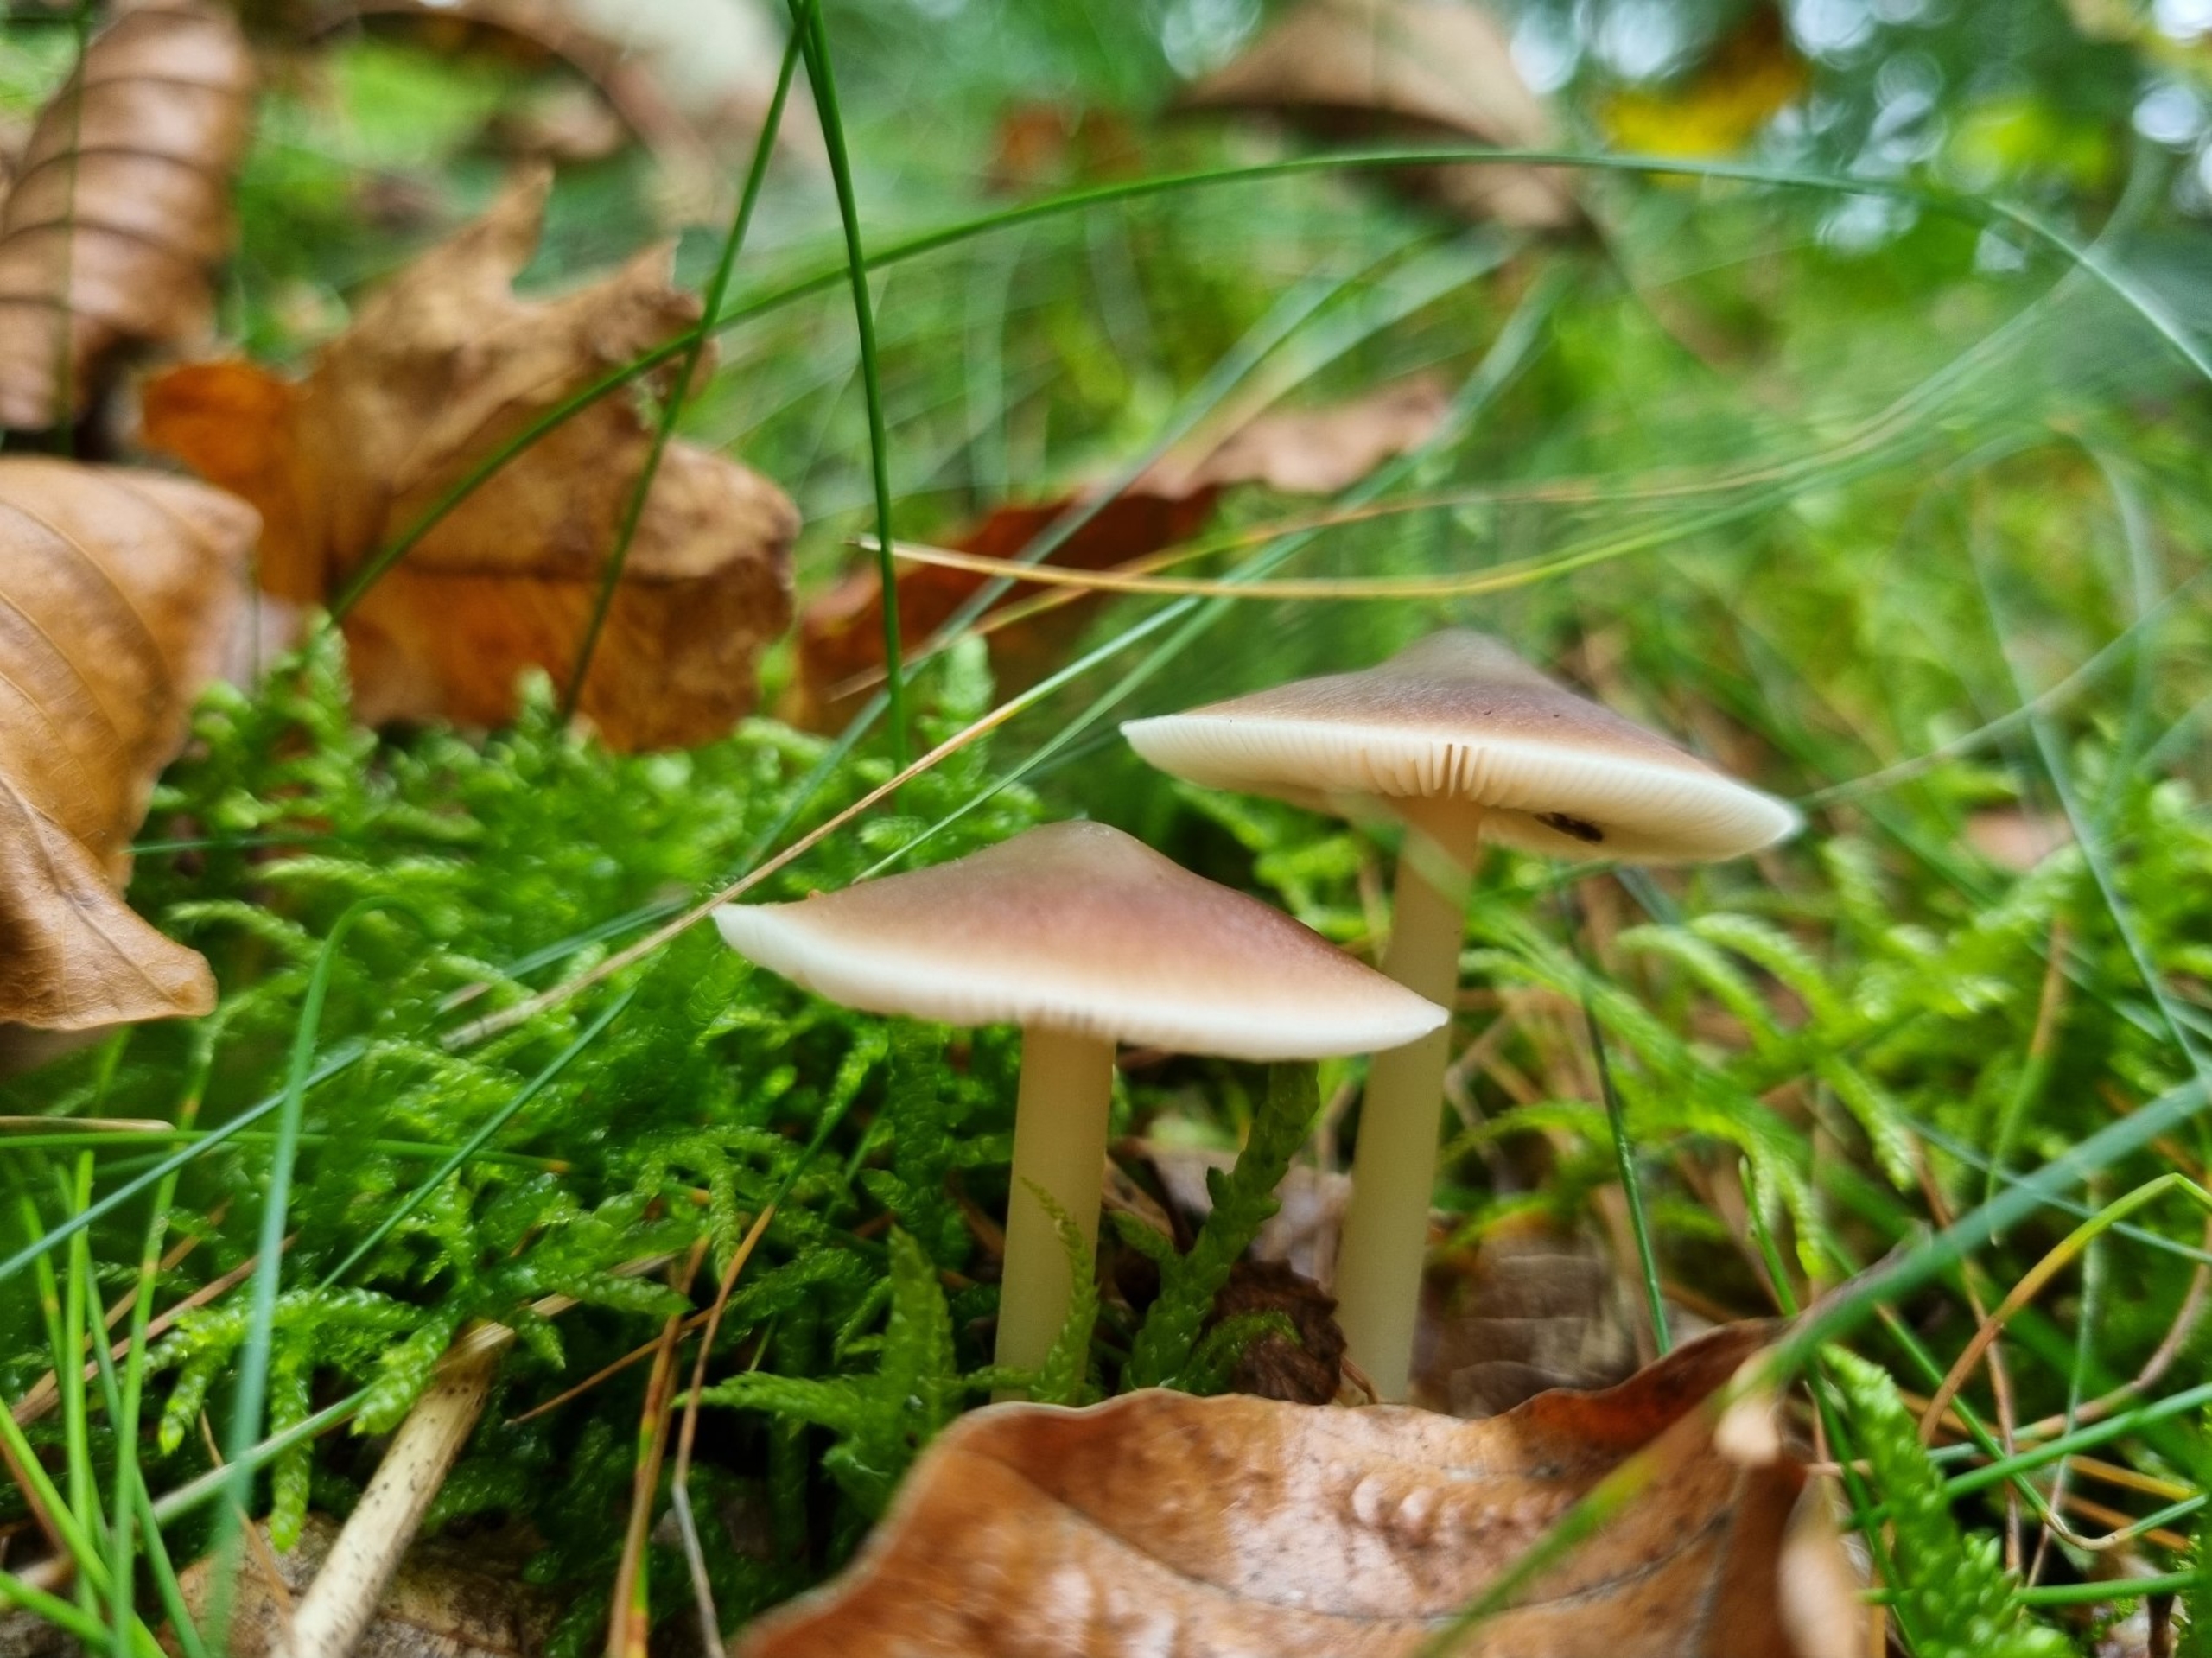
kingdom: Fungi
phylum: Basidiomycota
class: Agaricomycetes
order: Agaricales
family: Omphalotaceae
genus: Rhodocollybia
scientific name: Rhodocollybia asema
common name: Horngrå fladhat
